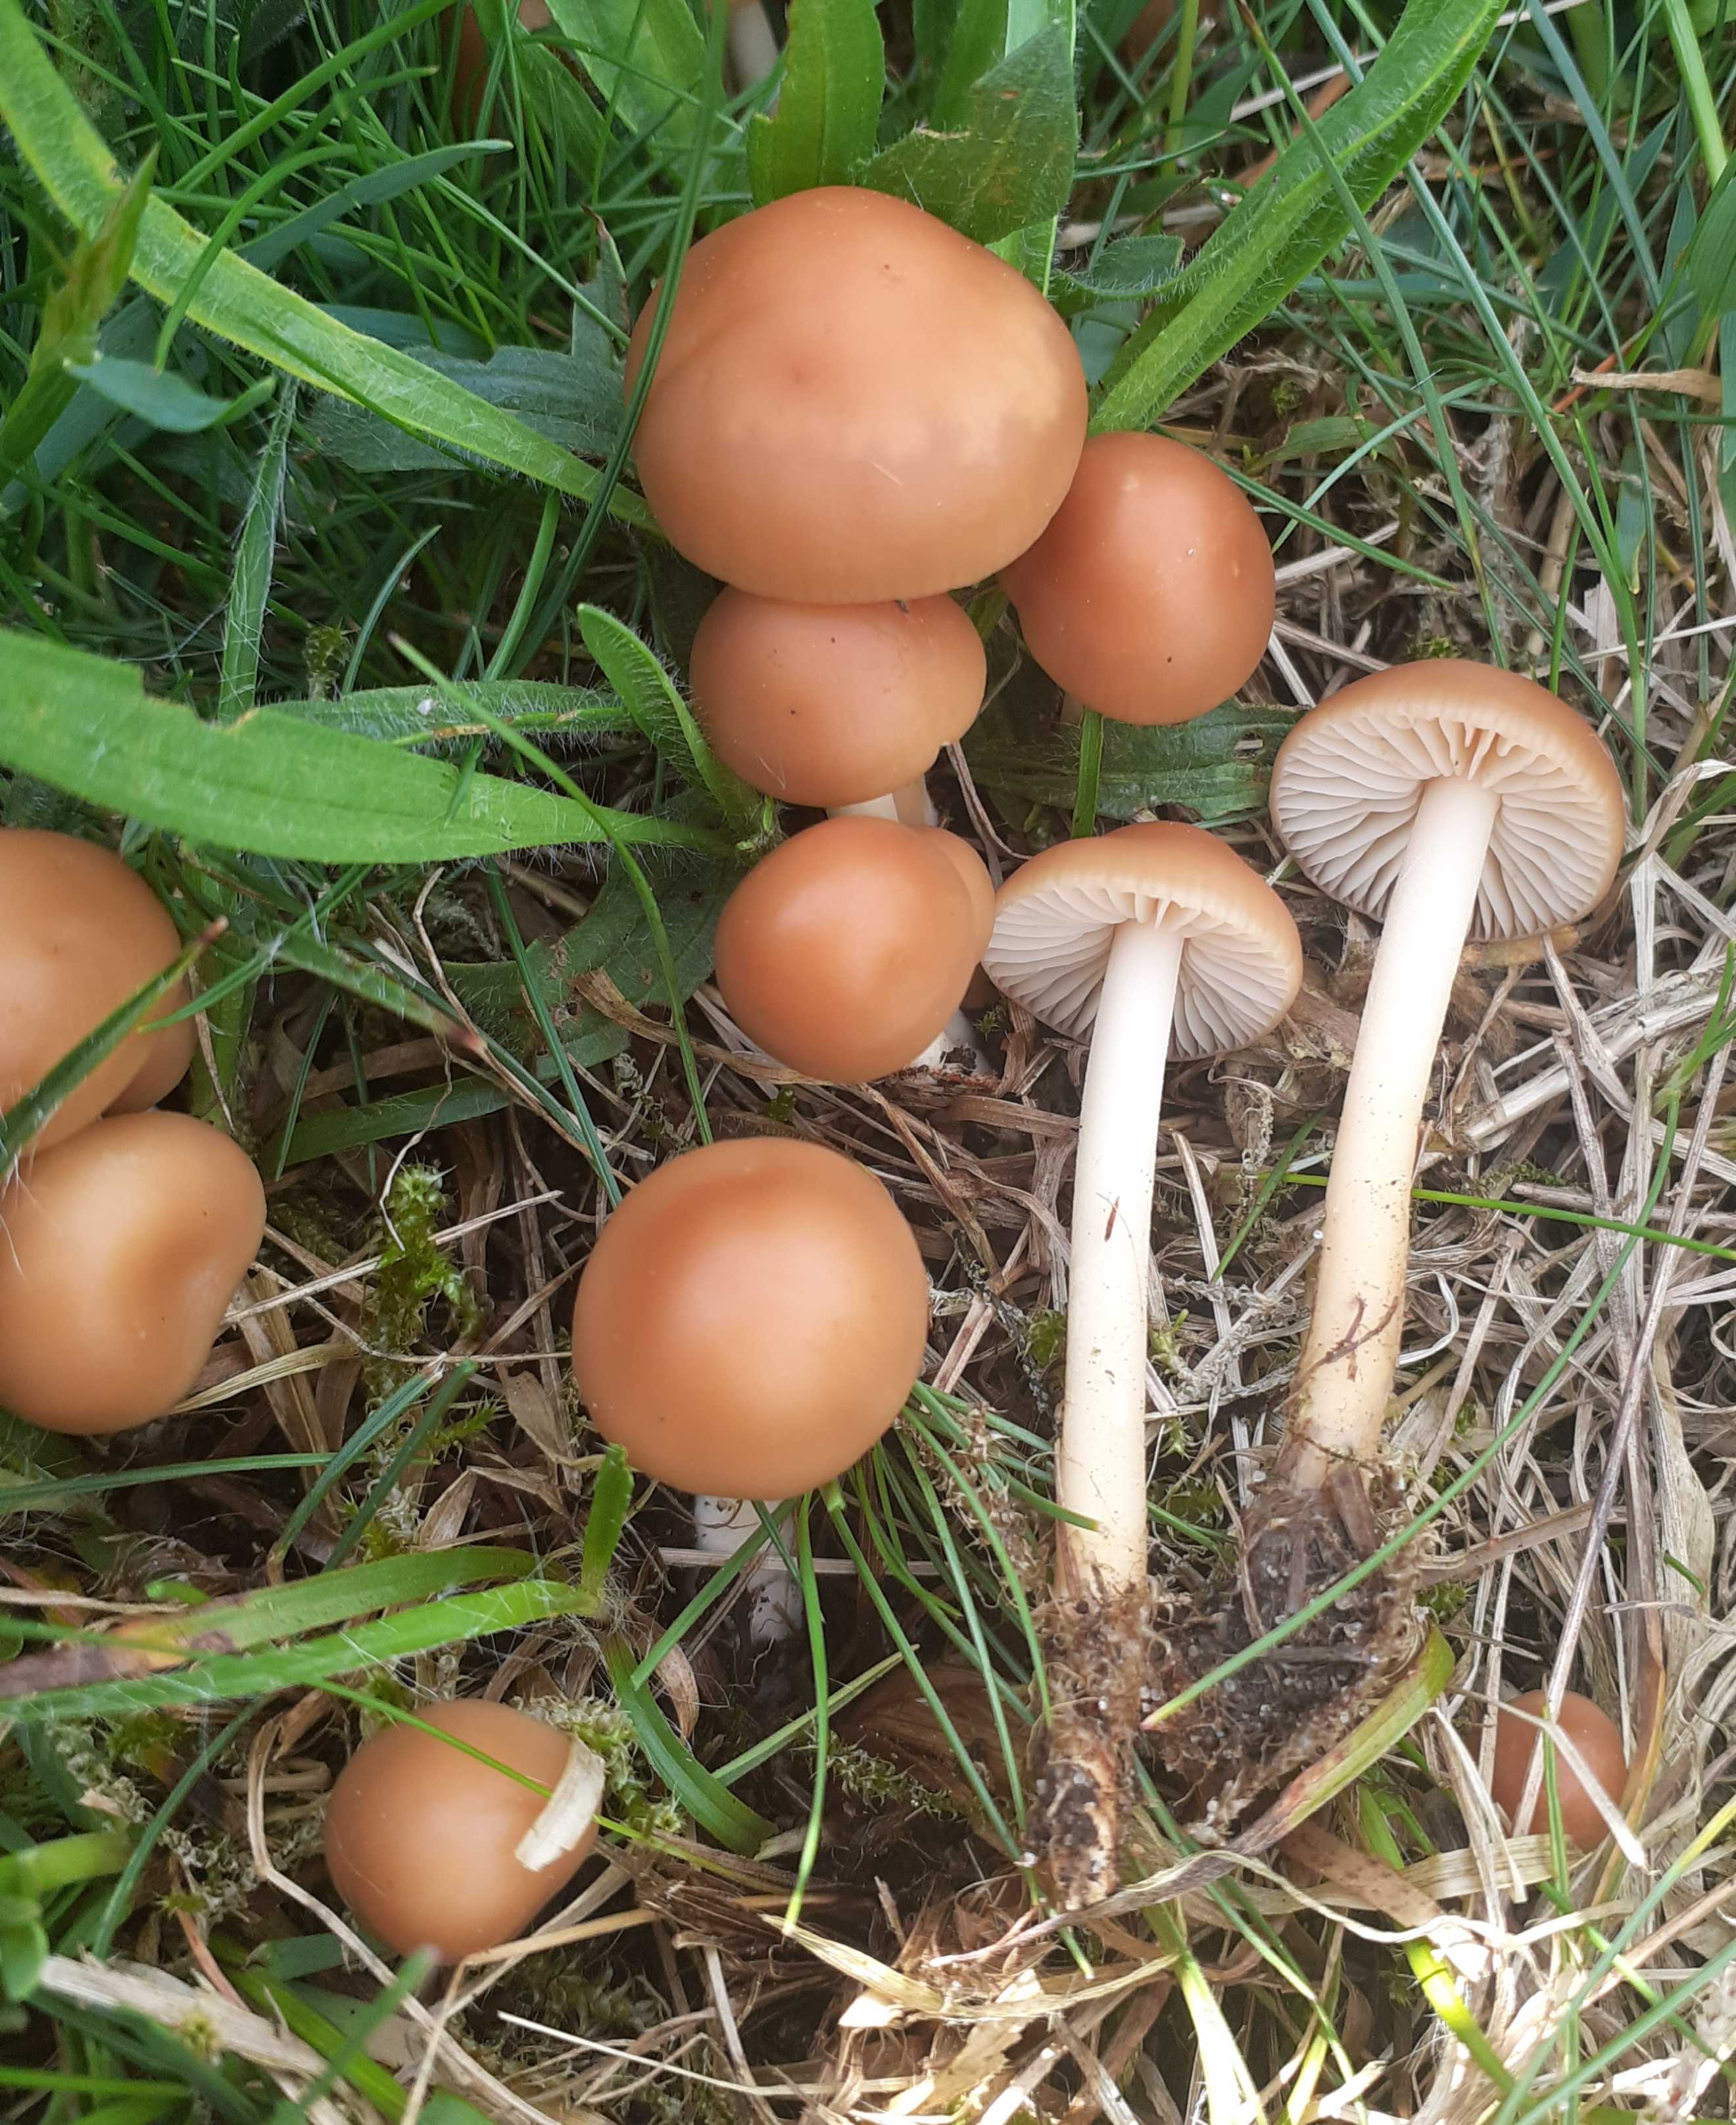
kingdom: Fungi
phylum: Basidiomycota
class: Agaricomycetes
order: Agaricales
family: Marasmiaceae
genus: Marasmius
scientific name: Marasmius oreades
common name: elledans-bruskhat
